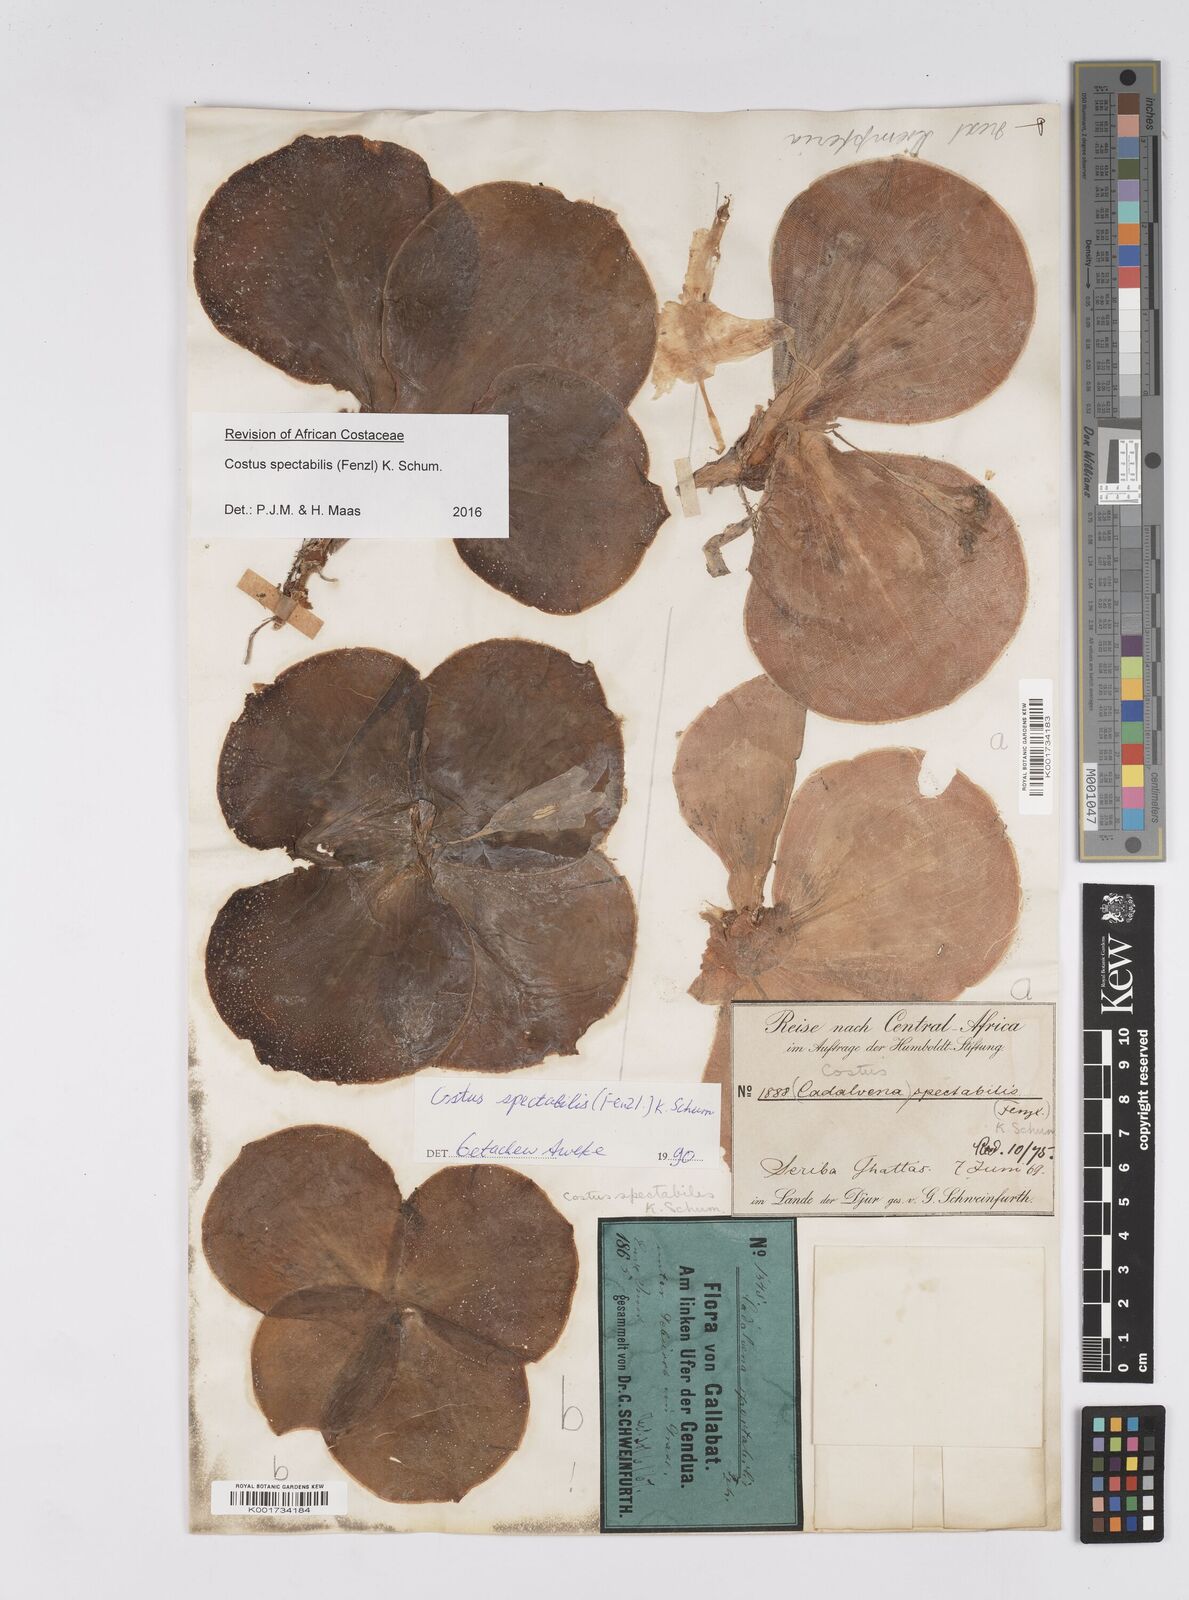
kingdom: Plantae
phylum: Tracheophyta
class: Liliopsida
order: Zingiberales
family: Costaceae
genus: Costus
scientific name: Costus spectabilis
